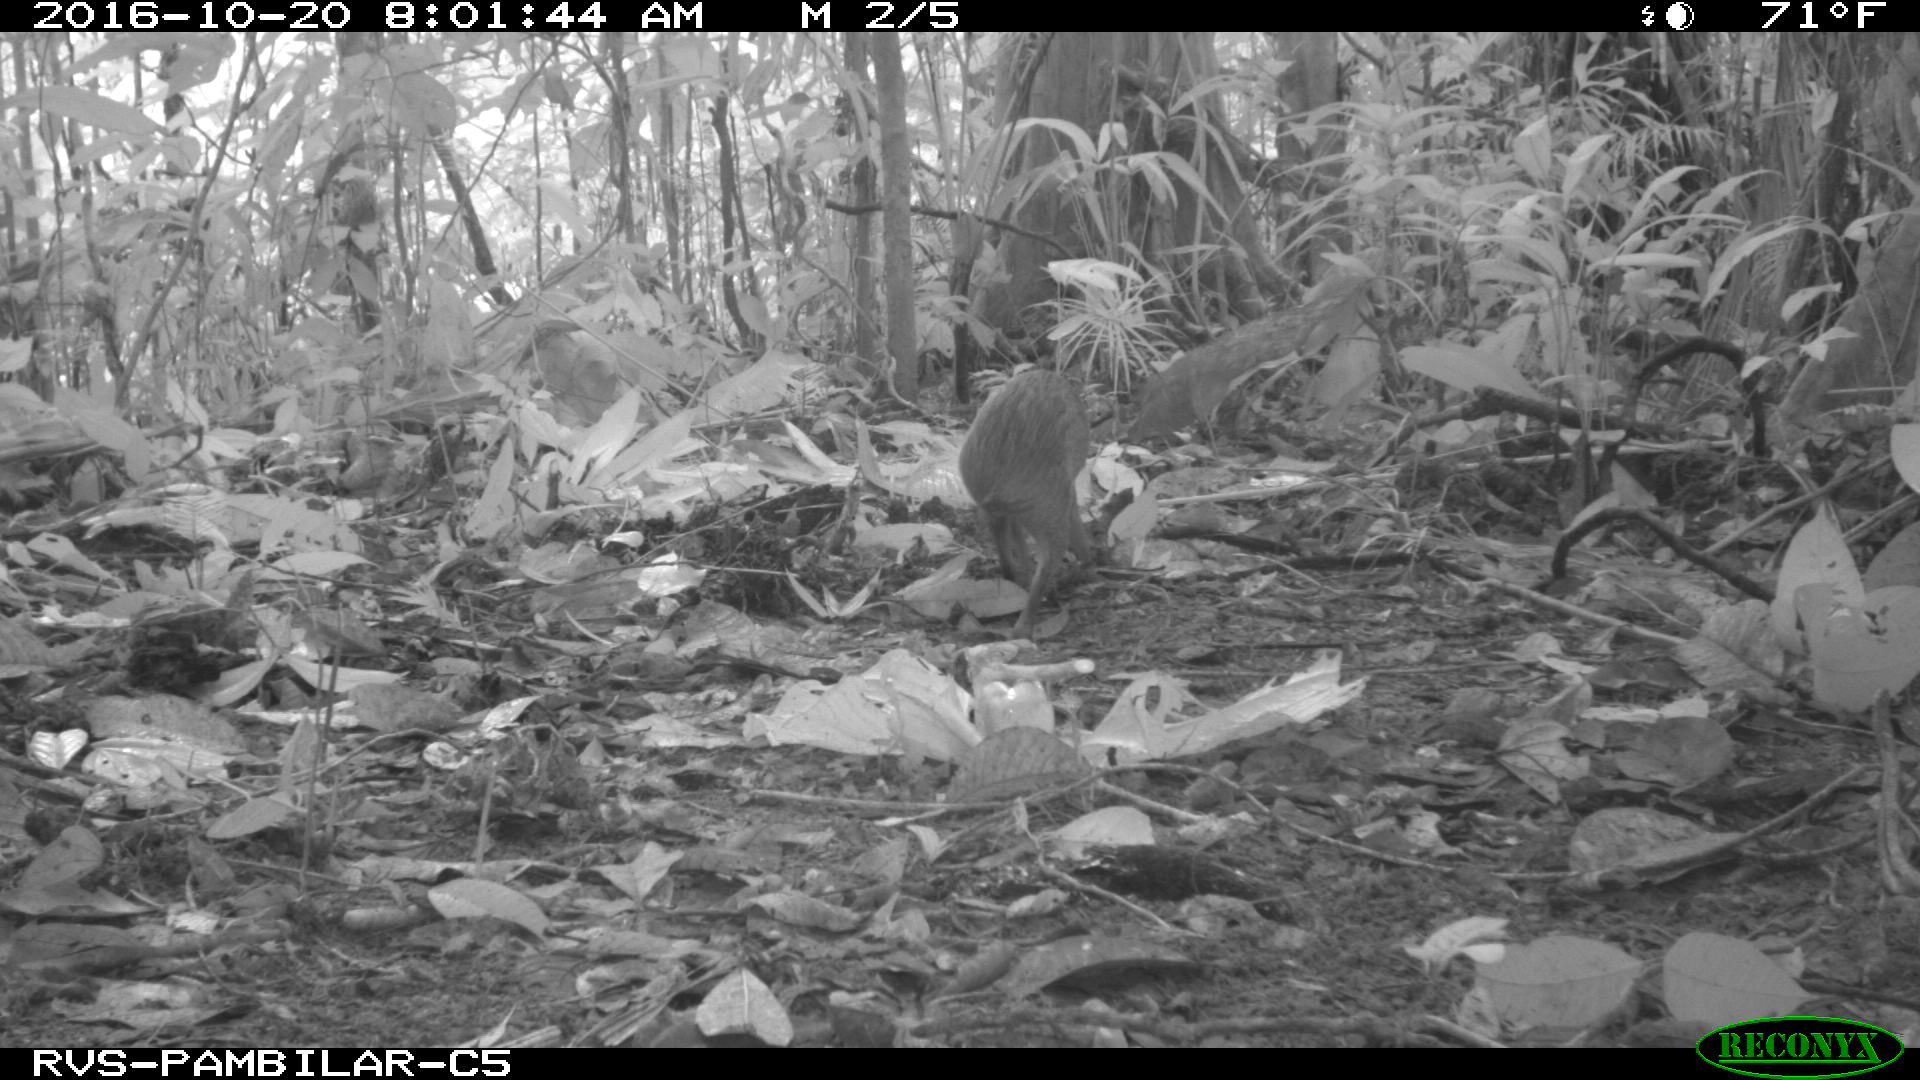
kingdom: Animalia
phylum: Chordata
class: Mammalia
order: Rodentia
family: Dasyproctidae
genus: Dasyprocta
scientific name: Dasyprocta punctata
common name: Central american agouti
